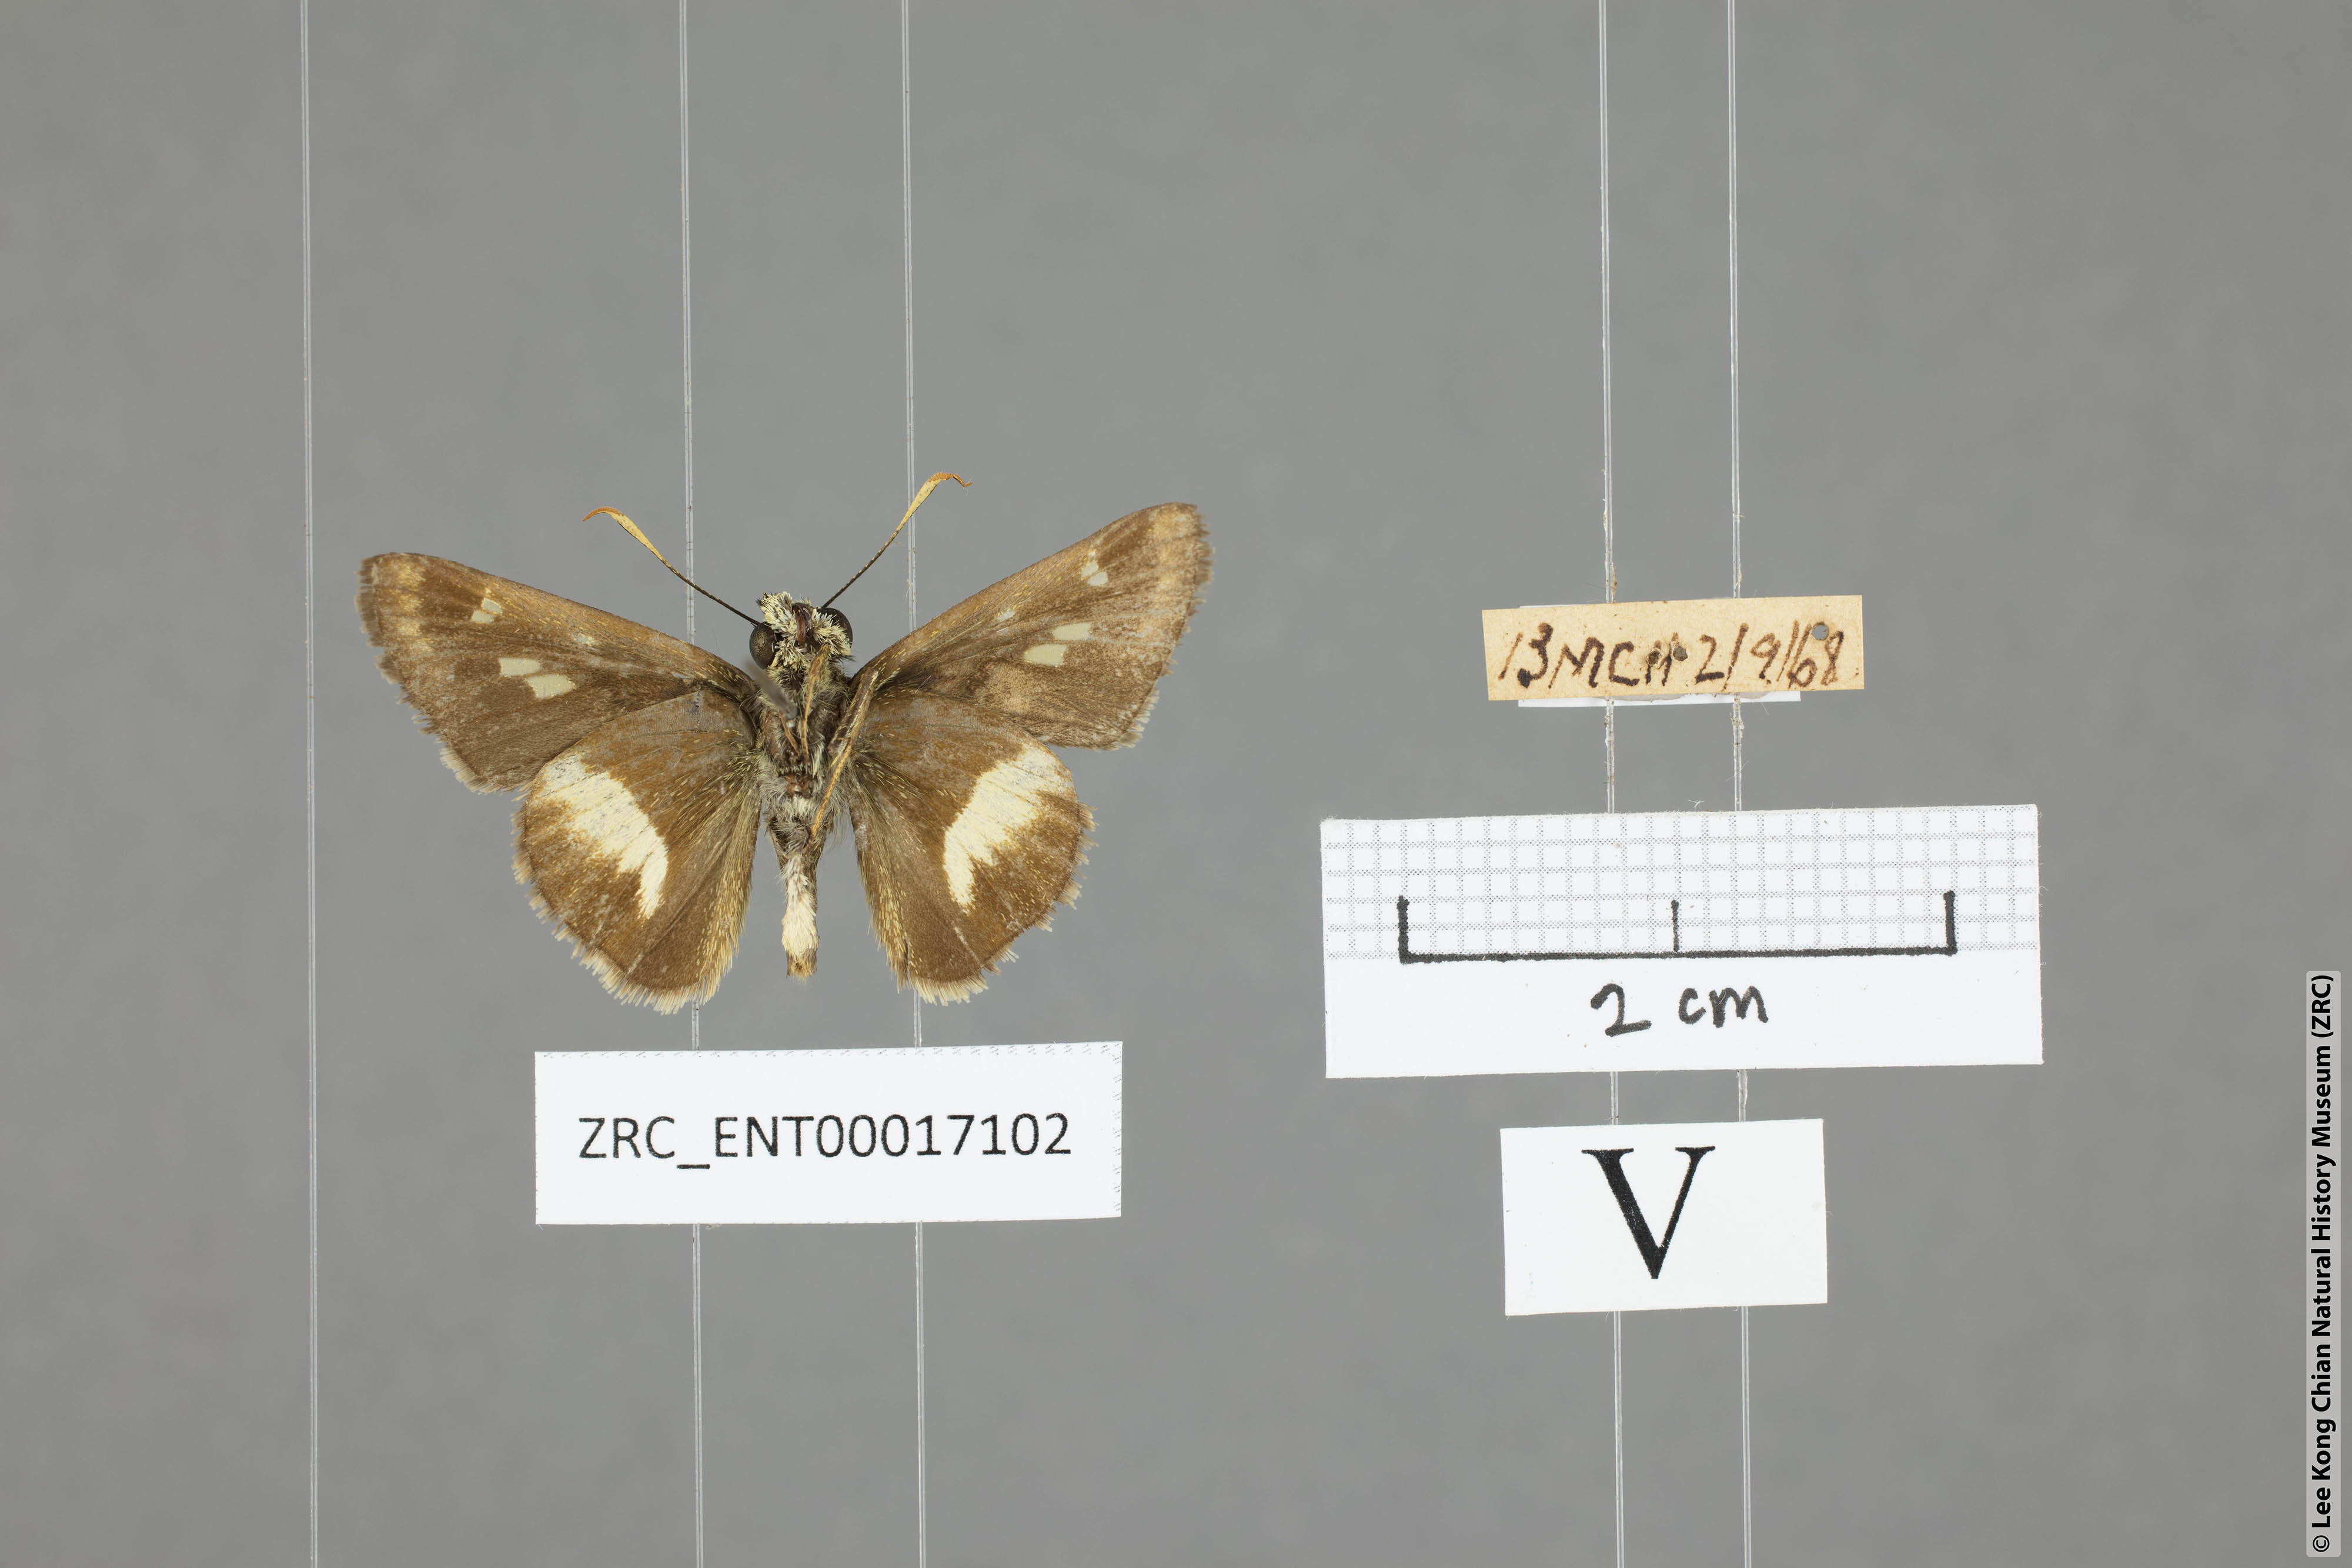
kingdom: Animalia
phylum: Arthropoda
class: Insecta
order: Lepidoptera
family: Hesperiidae
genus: Halpe
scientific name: Halpe zema
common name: Dark banded ace
